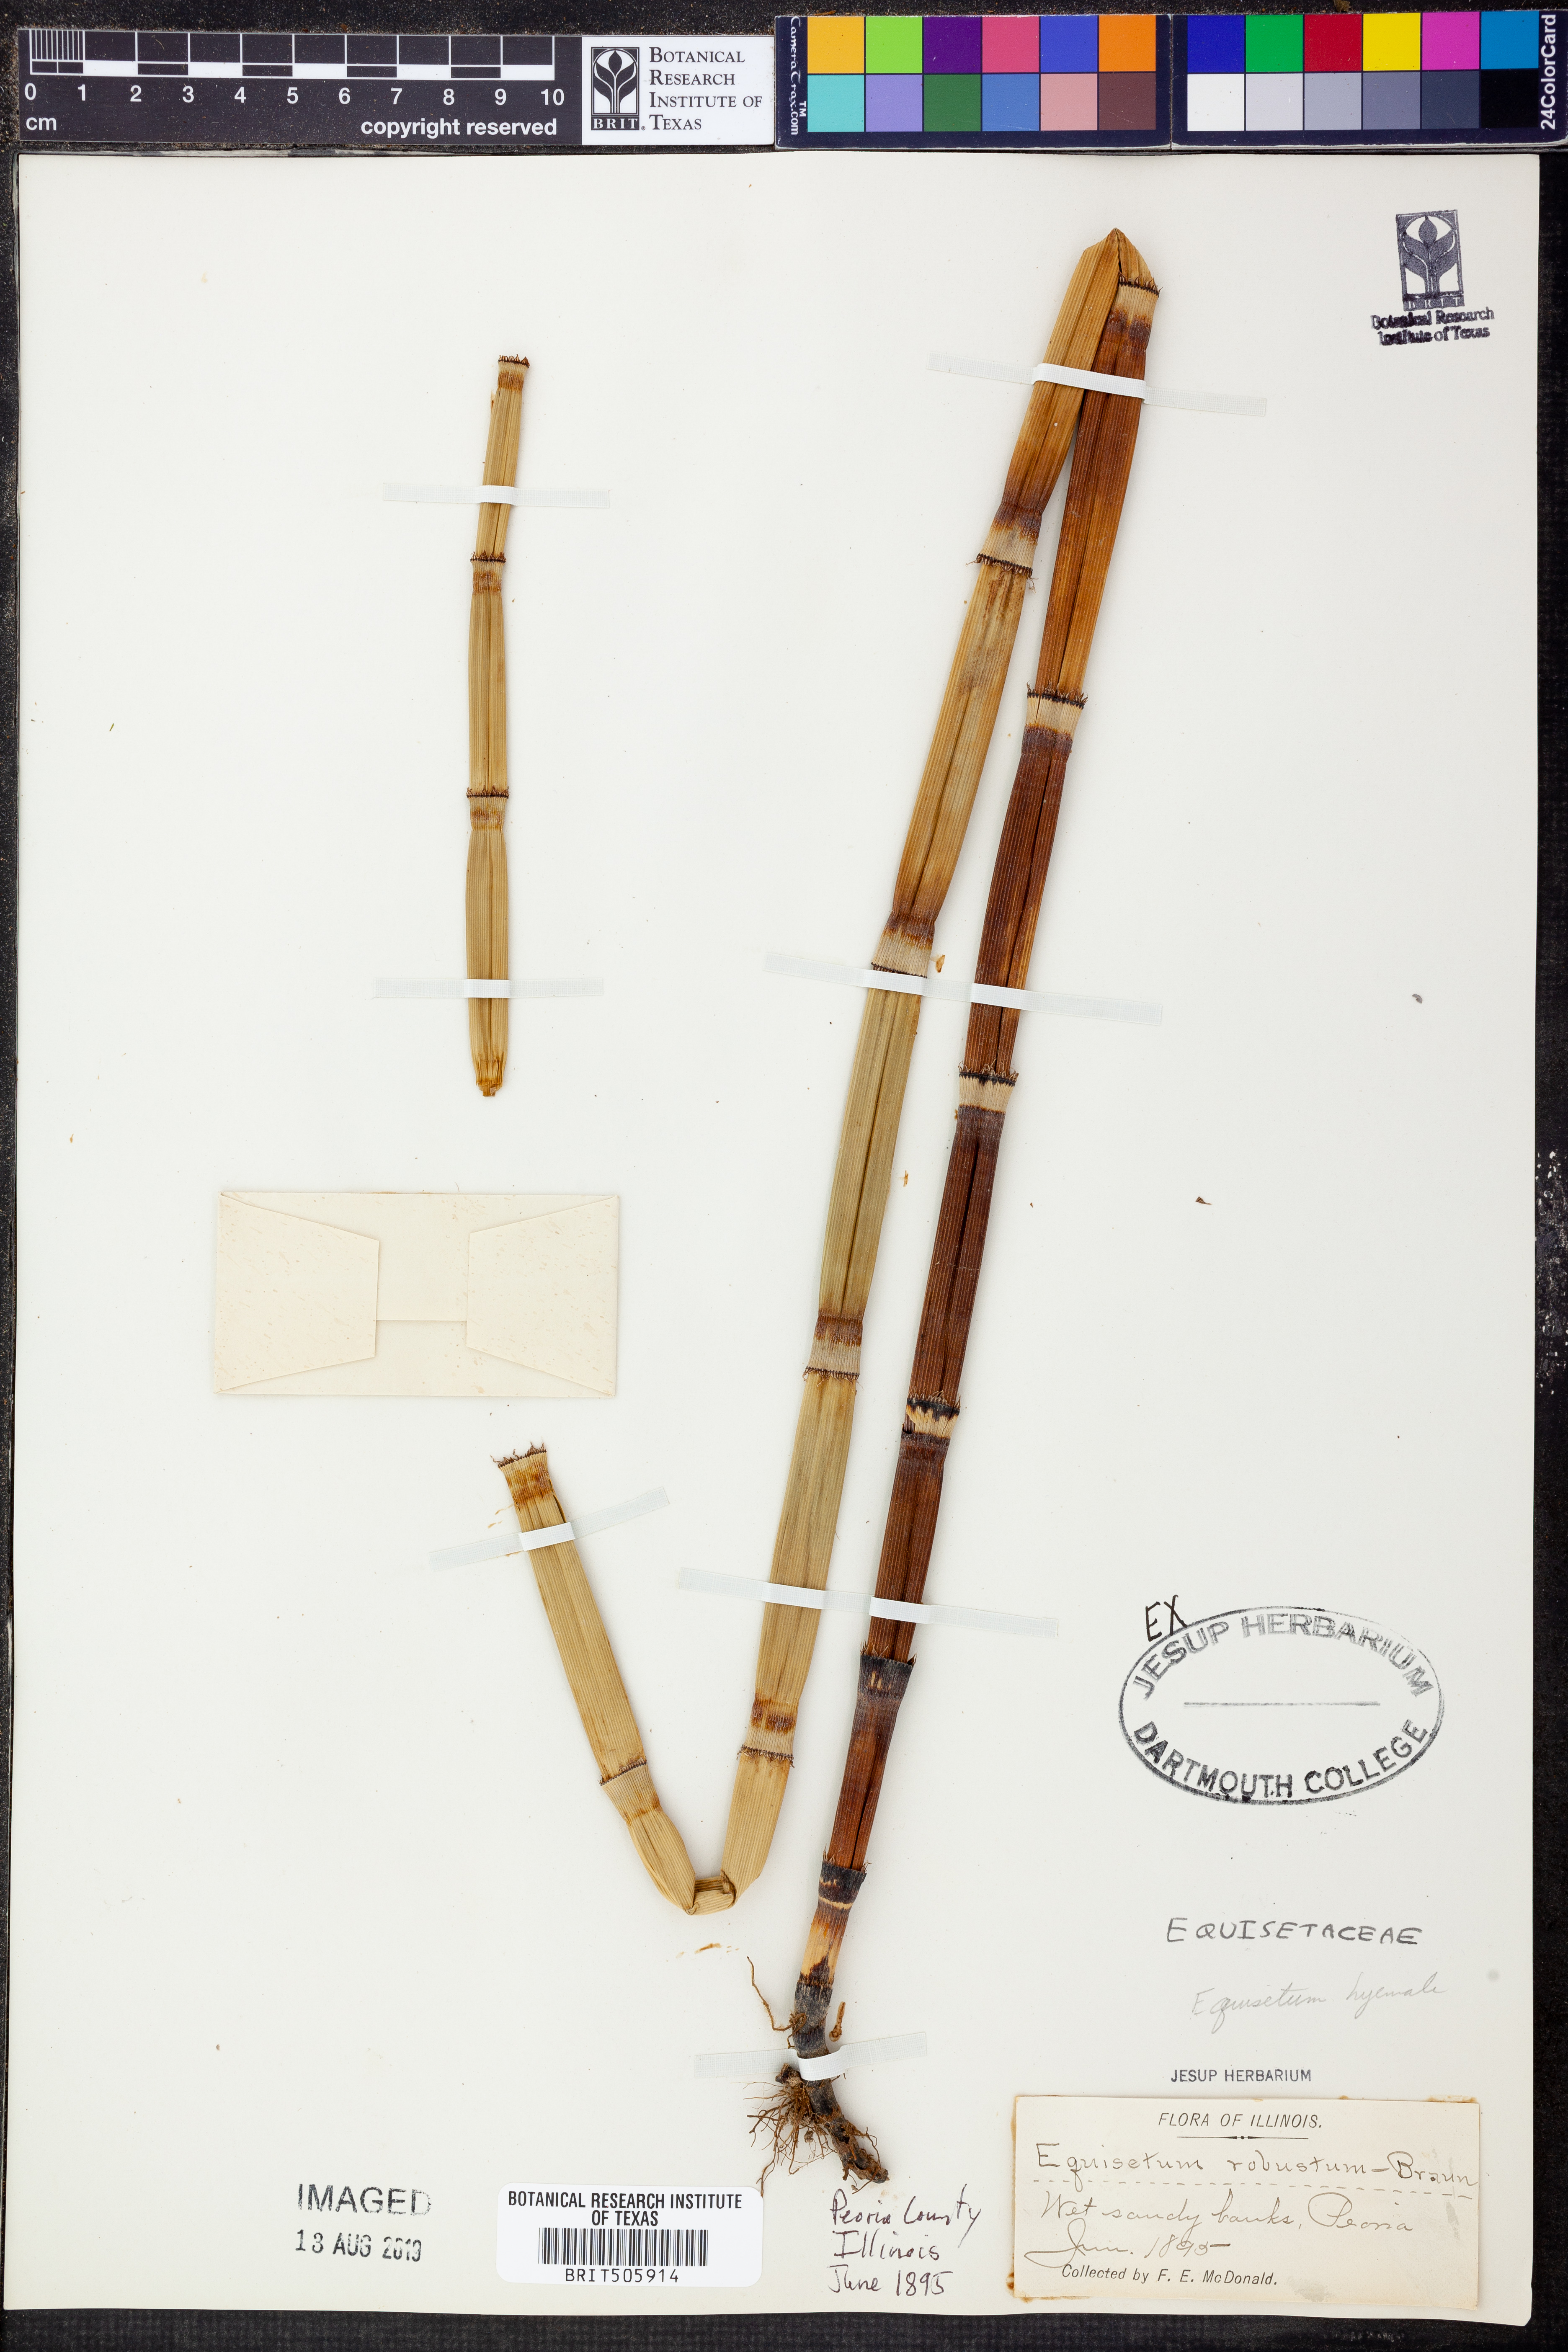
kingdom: Plantae
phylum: Tracheophyta
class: Polypodiopsida
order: Equisetales
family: Equisetaceae
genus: Equisetum
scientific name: Equisetum hyemale
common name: Rough horsetail
